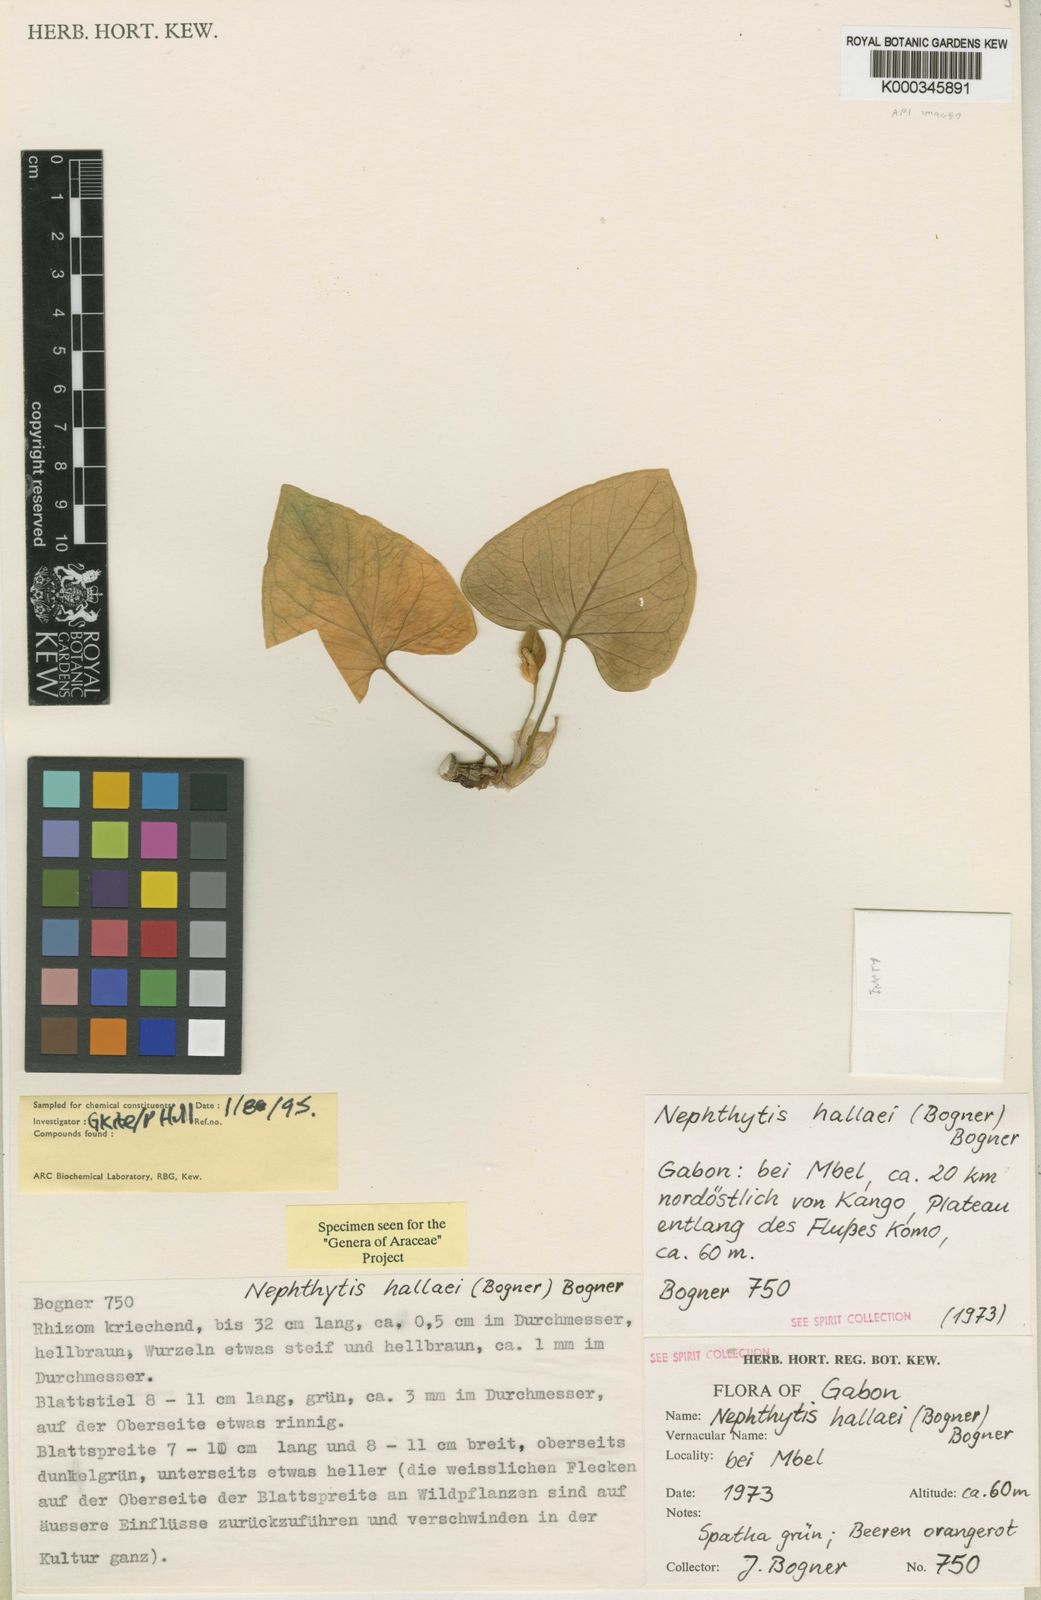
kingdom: Plantae
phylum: Tracheophyta
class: Liliopsida
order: Alismatales
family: Araceae
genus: Nephthytis
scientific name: Nephthytis hallaei
